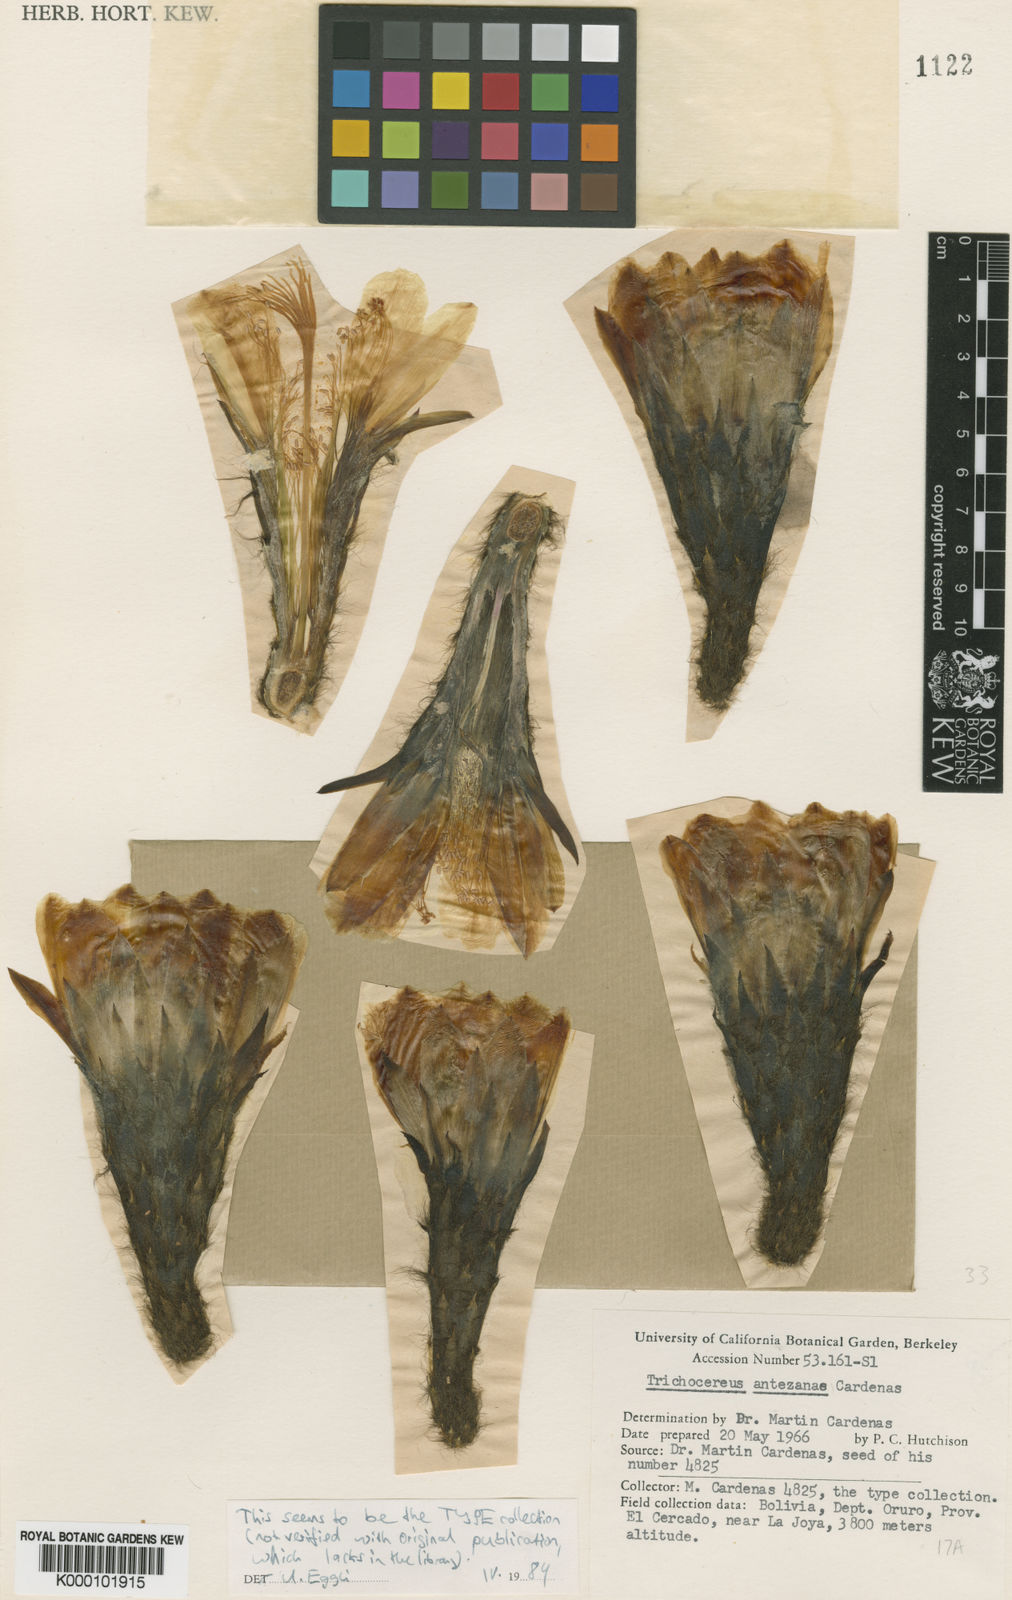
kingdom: Plantae
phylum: Tracheophyta
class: Magnoliopsida
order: Caryophyllales
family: Cactaceae
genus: Echinopsis
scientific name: Echinopsis
